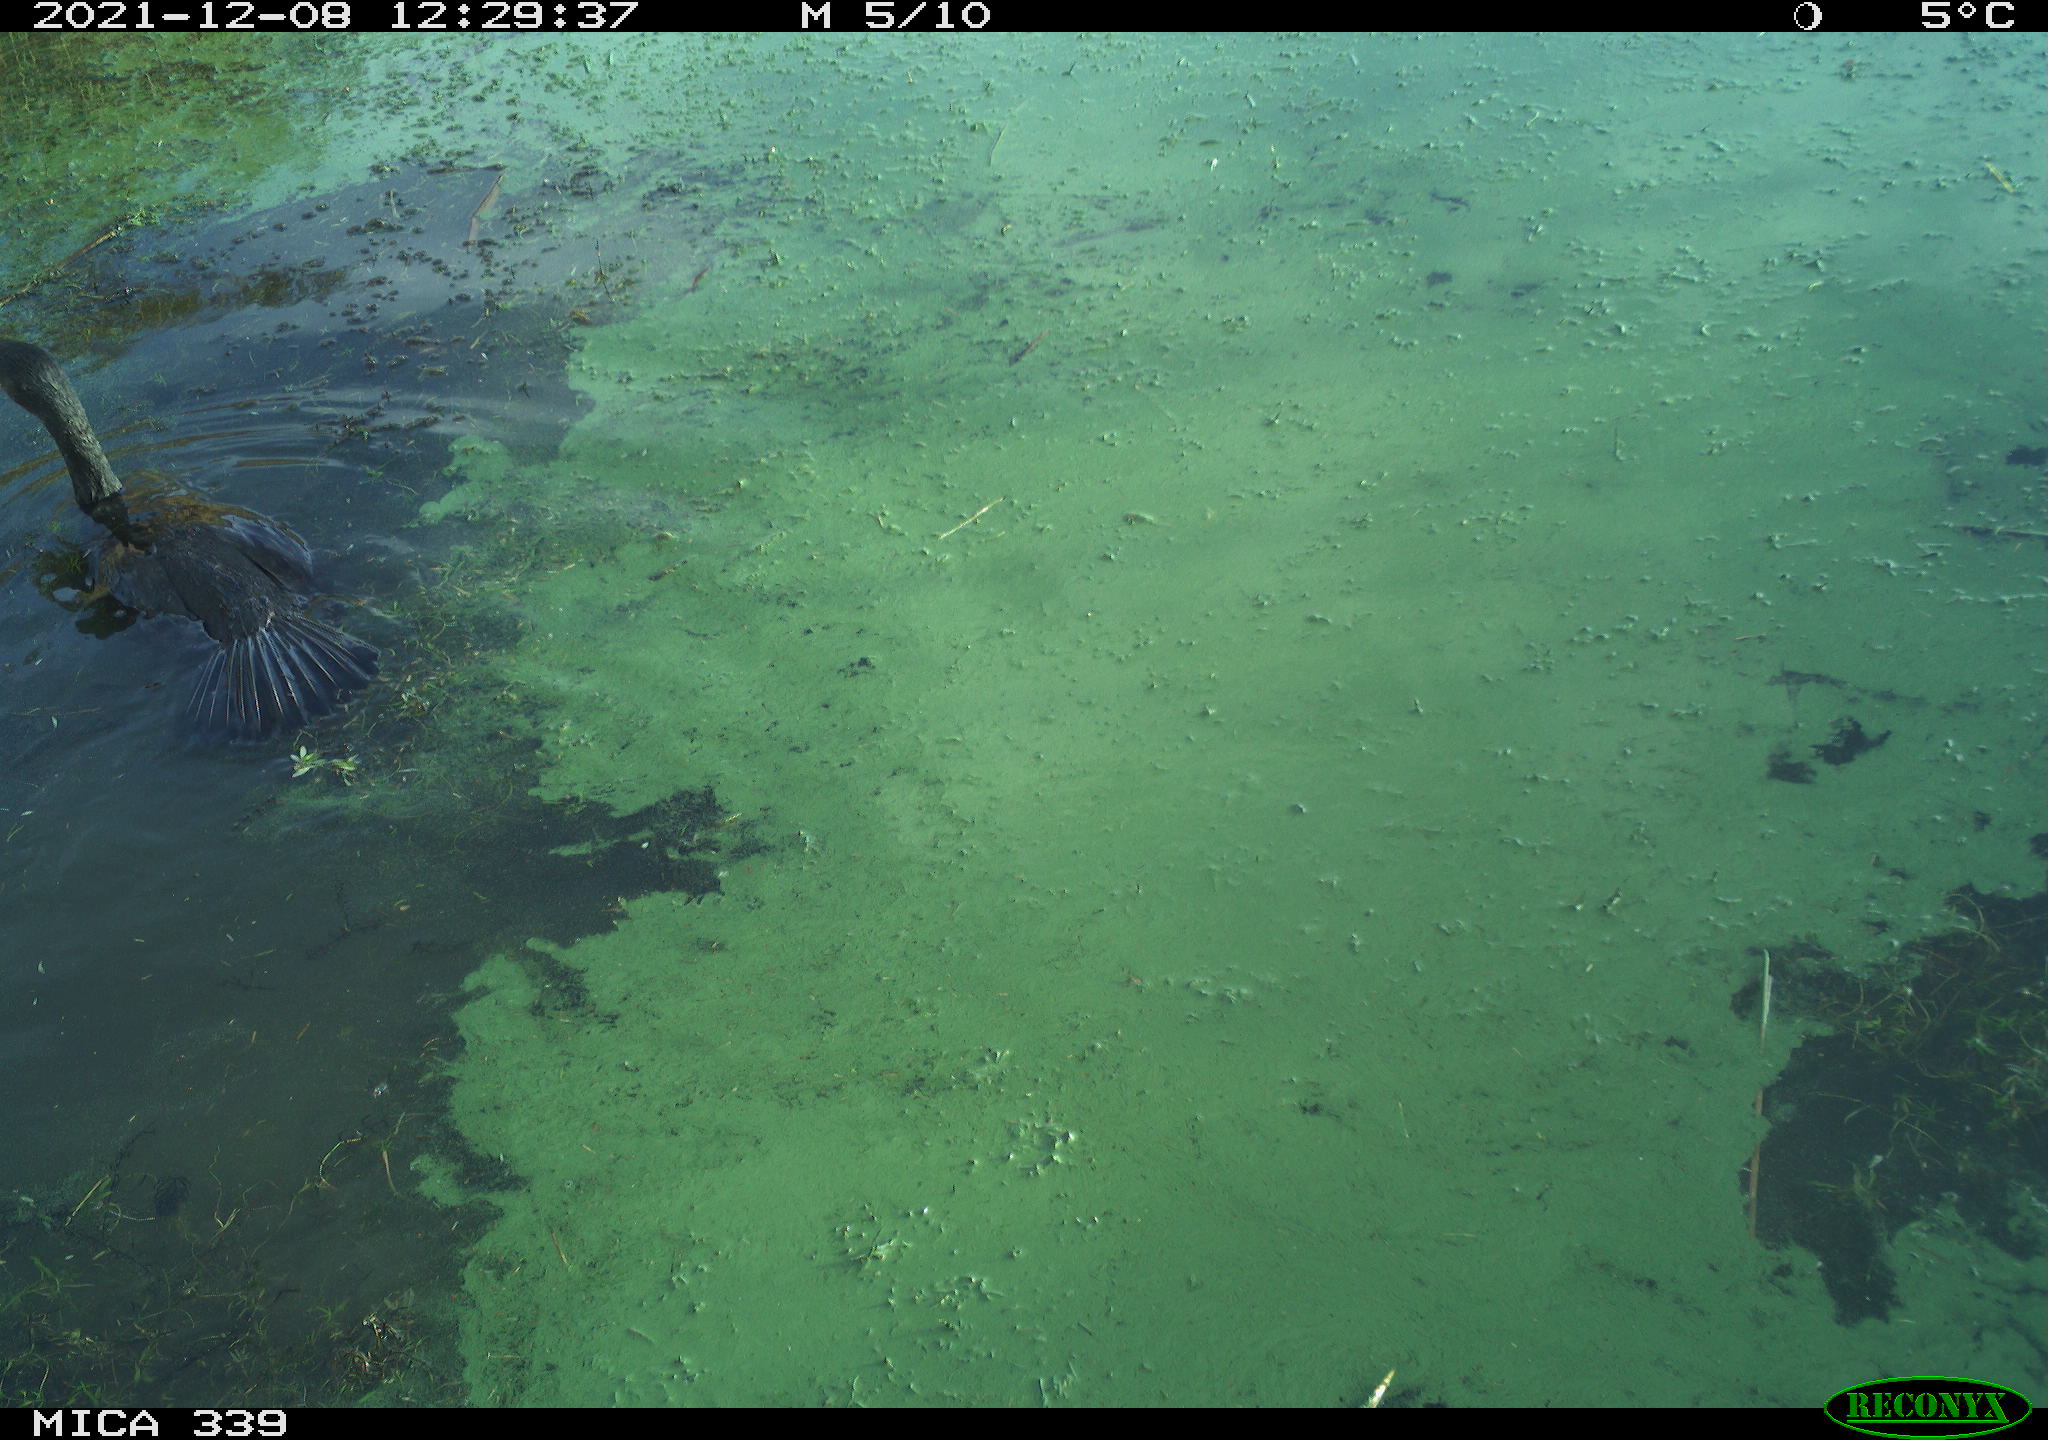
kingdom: Animalia
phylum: Chordata
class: Aves
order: Suliformes
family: Phalacrocoracidae
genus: Phalacrocorax
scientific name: Phalacrocorax carbo
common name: Great cormorant
